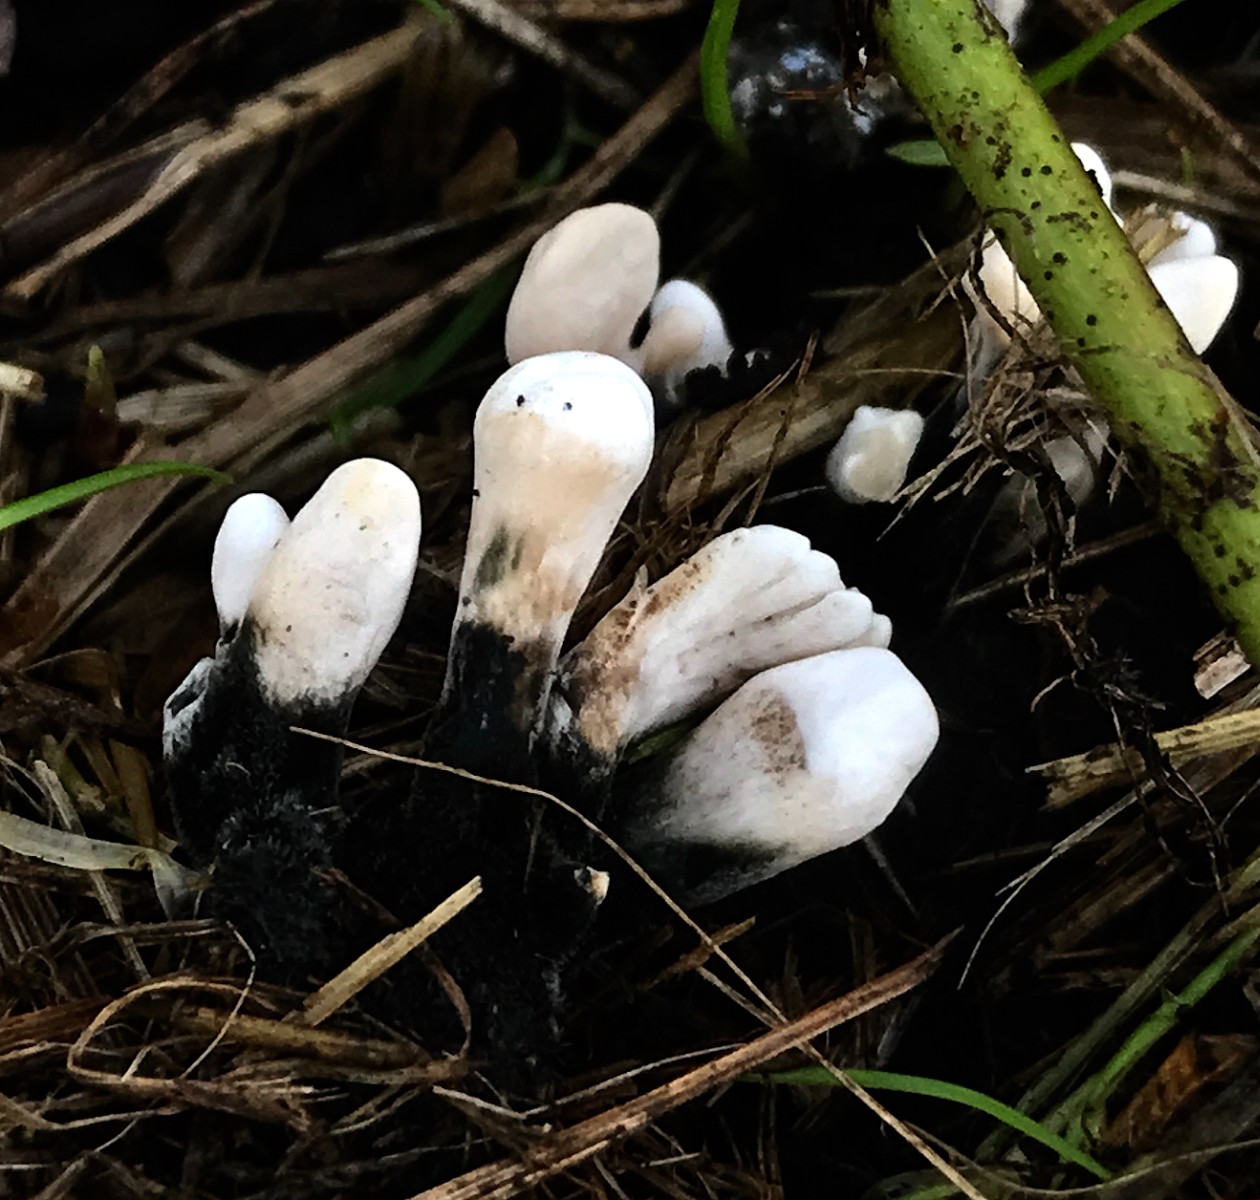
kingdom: Fungi
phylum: Ascomycota
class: Sordariomycetes
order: Xylariales
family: Xylariaceae
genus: Xylaria
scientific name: Xylaria hypoxylon
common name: grenet stødsvamp
